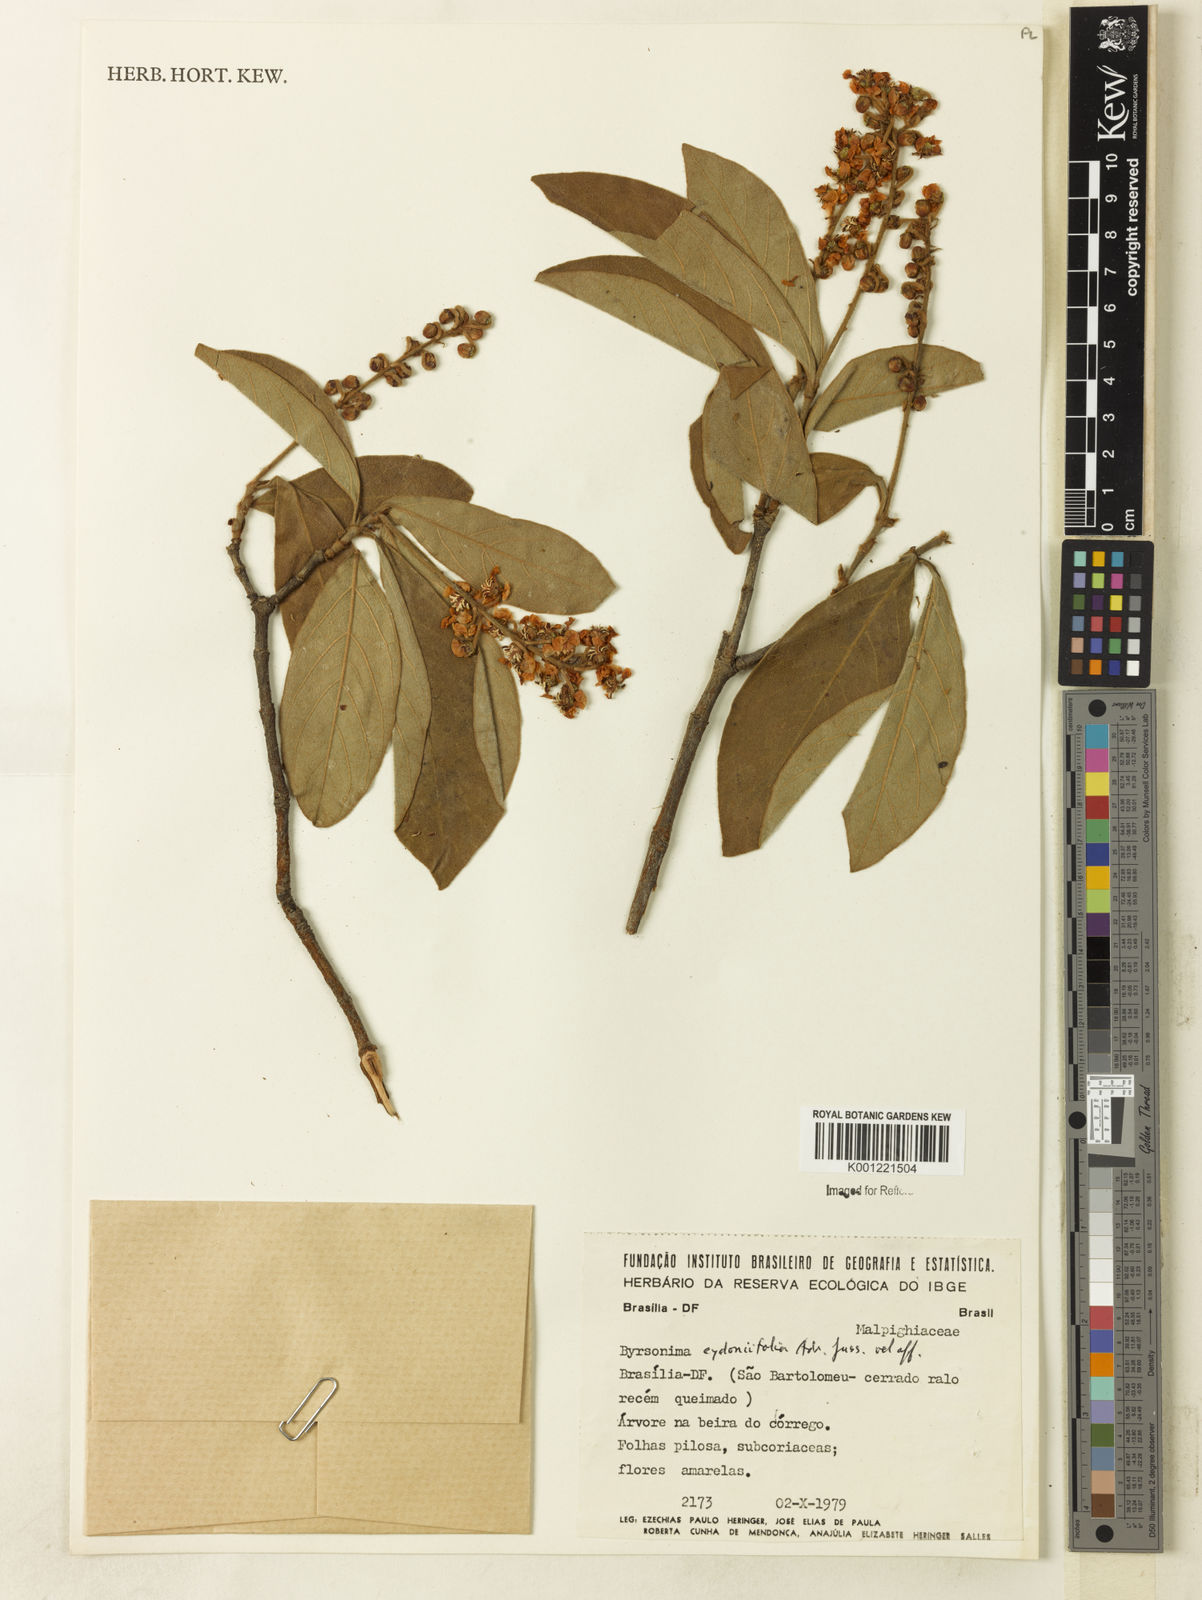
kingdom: Plantae
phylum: Tracheophyta
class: Magnoliopsida
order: Malpighiales
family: Malpighiaceae
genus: Byrsonima
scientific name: Byrsonima cydoniifolia
